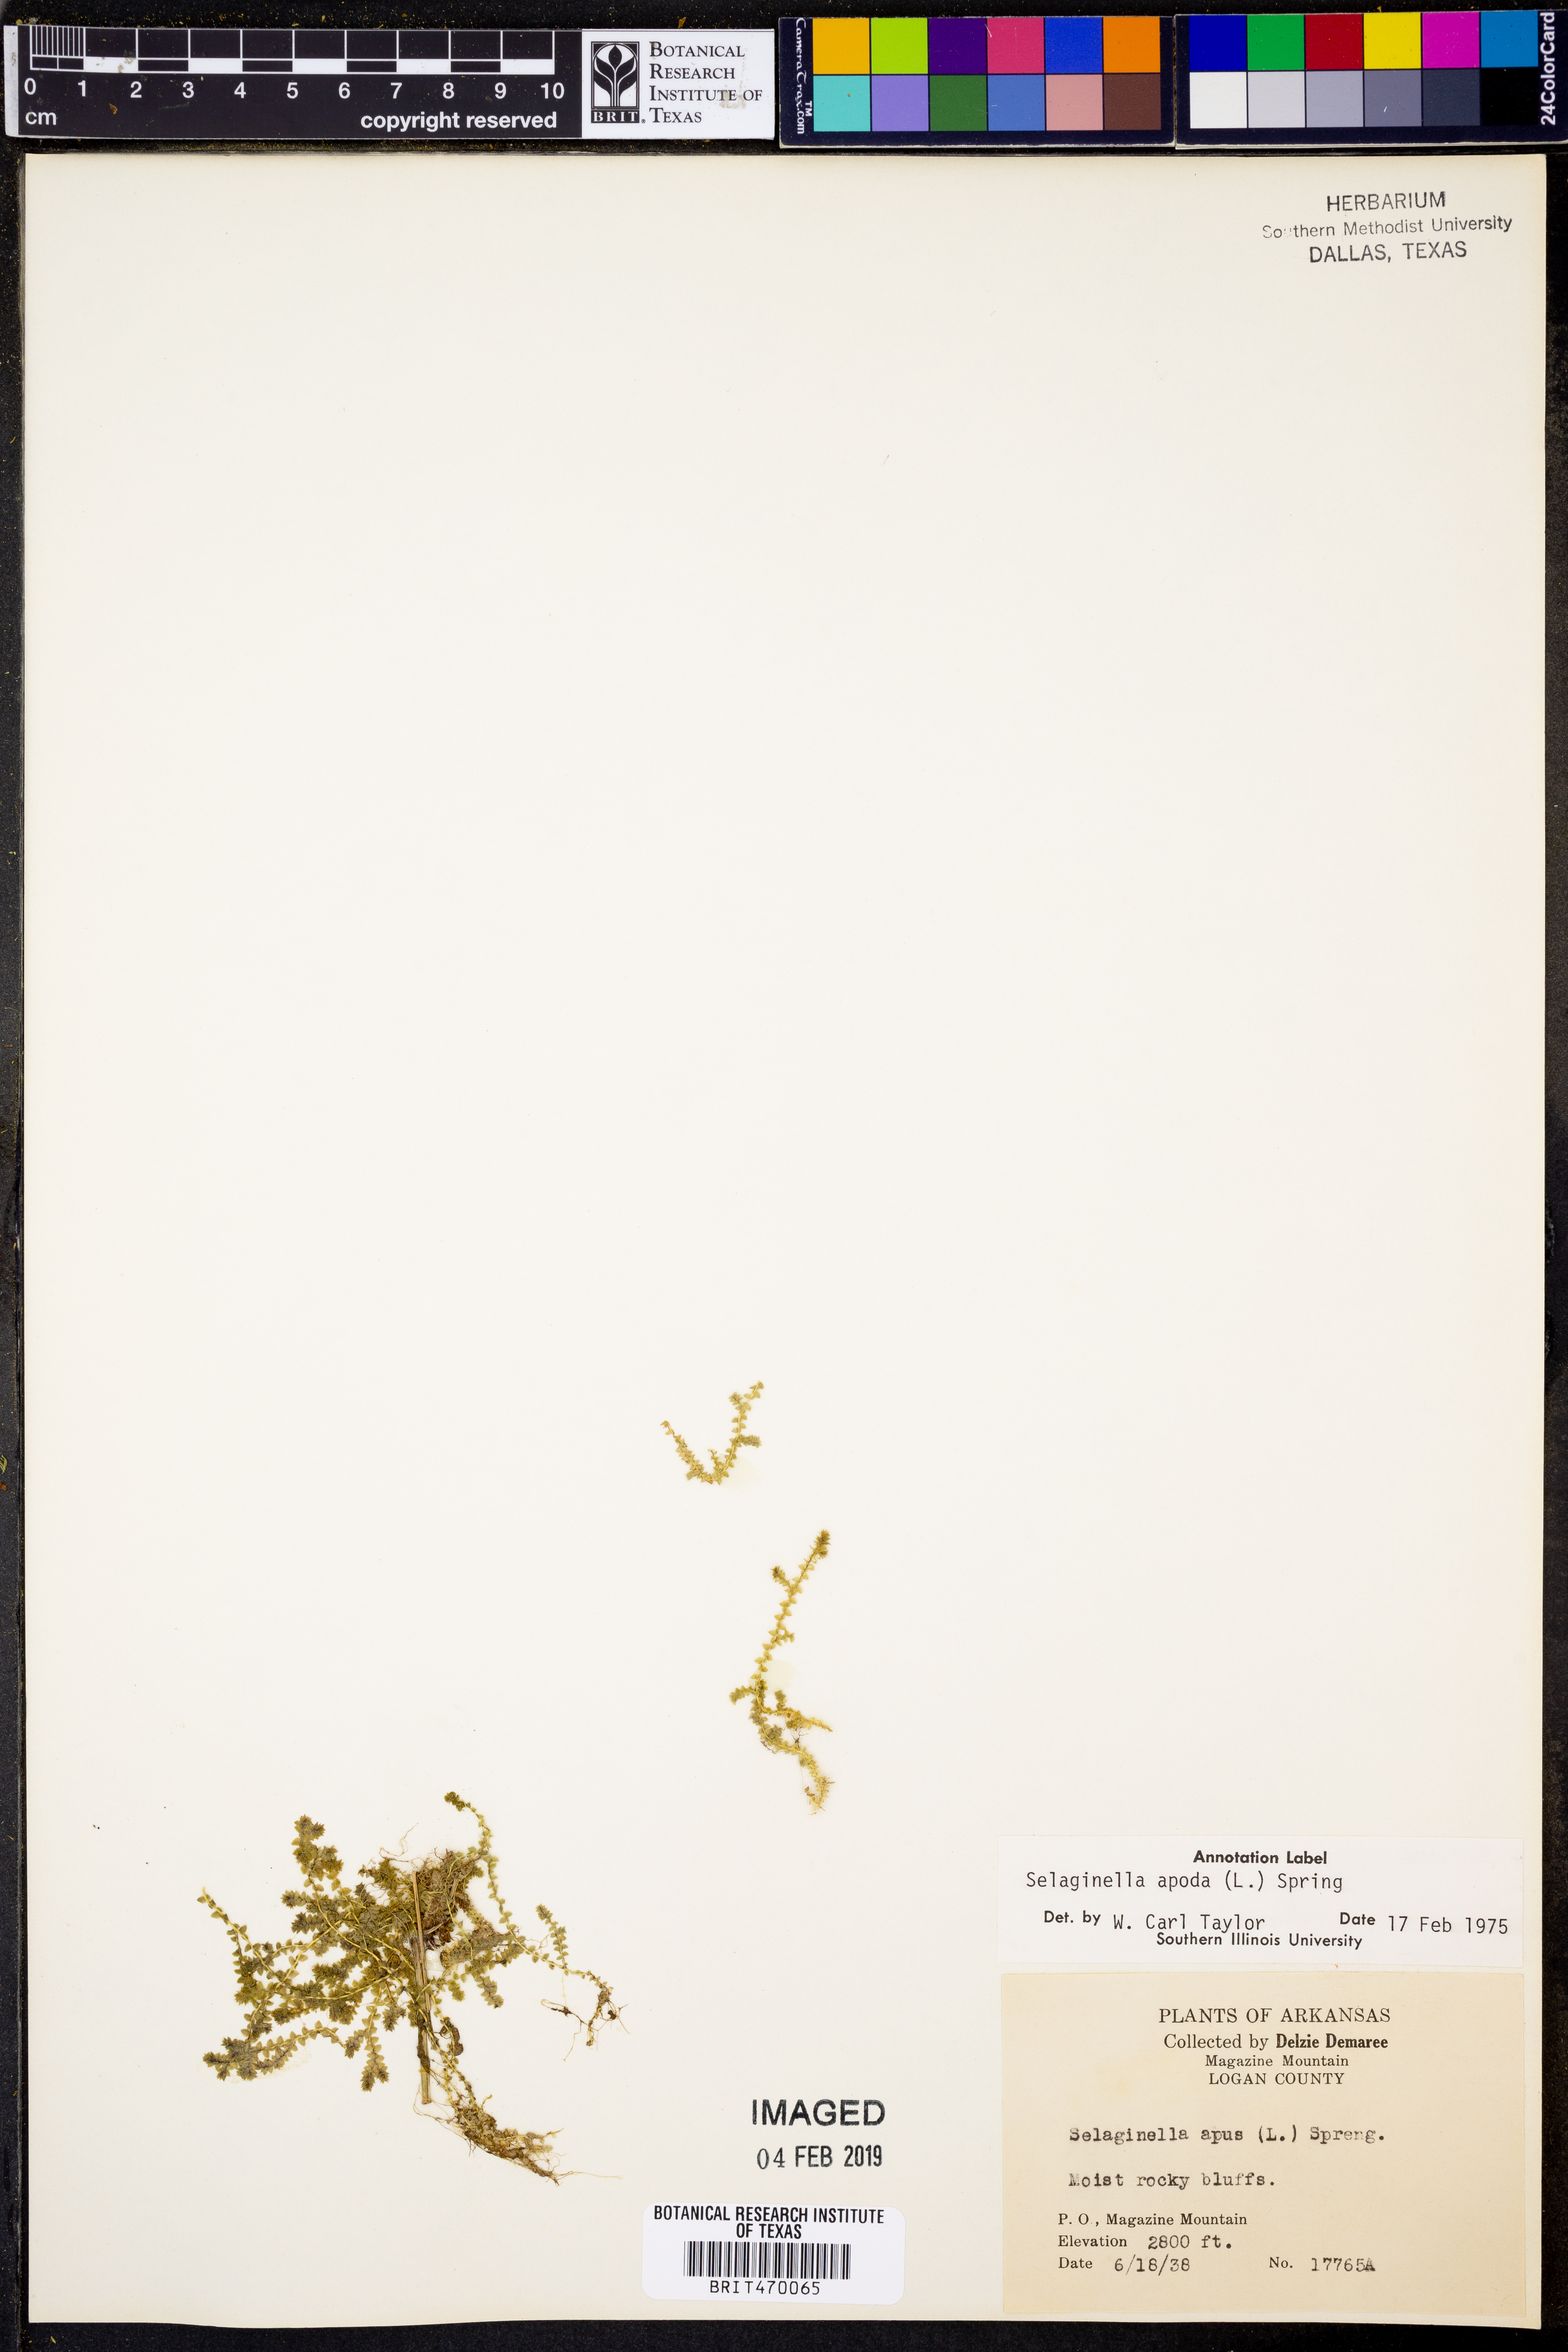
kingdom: Plantae
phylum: Tracheophyta
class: Lycopodiopsida
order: Selaginellales
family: Selaginellaceae
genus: Selaginella
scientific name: Selaginella apoda
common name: Creeping spikemoss
